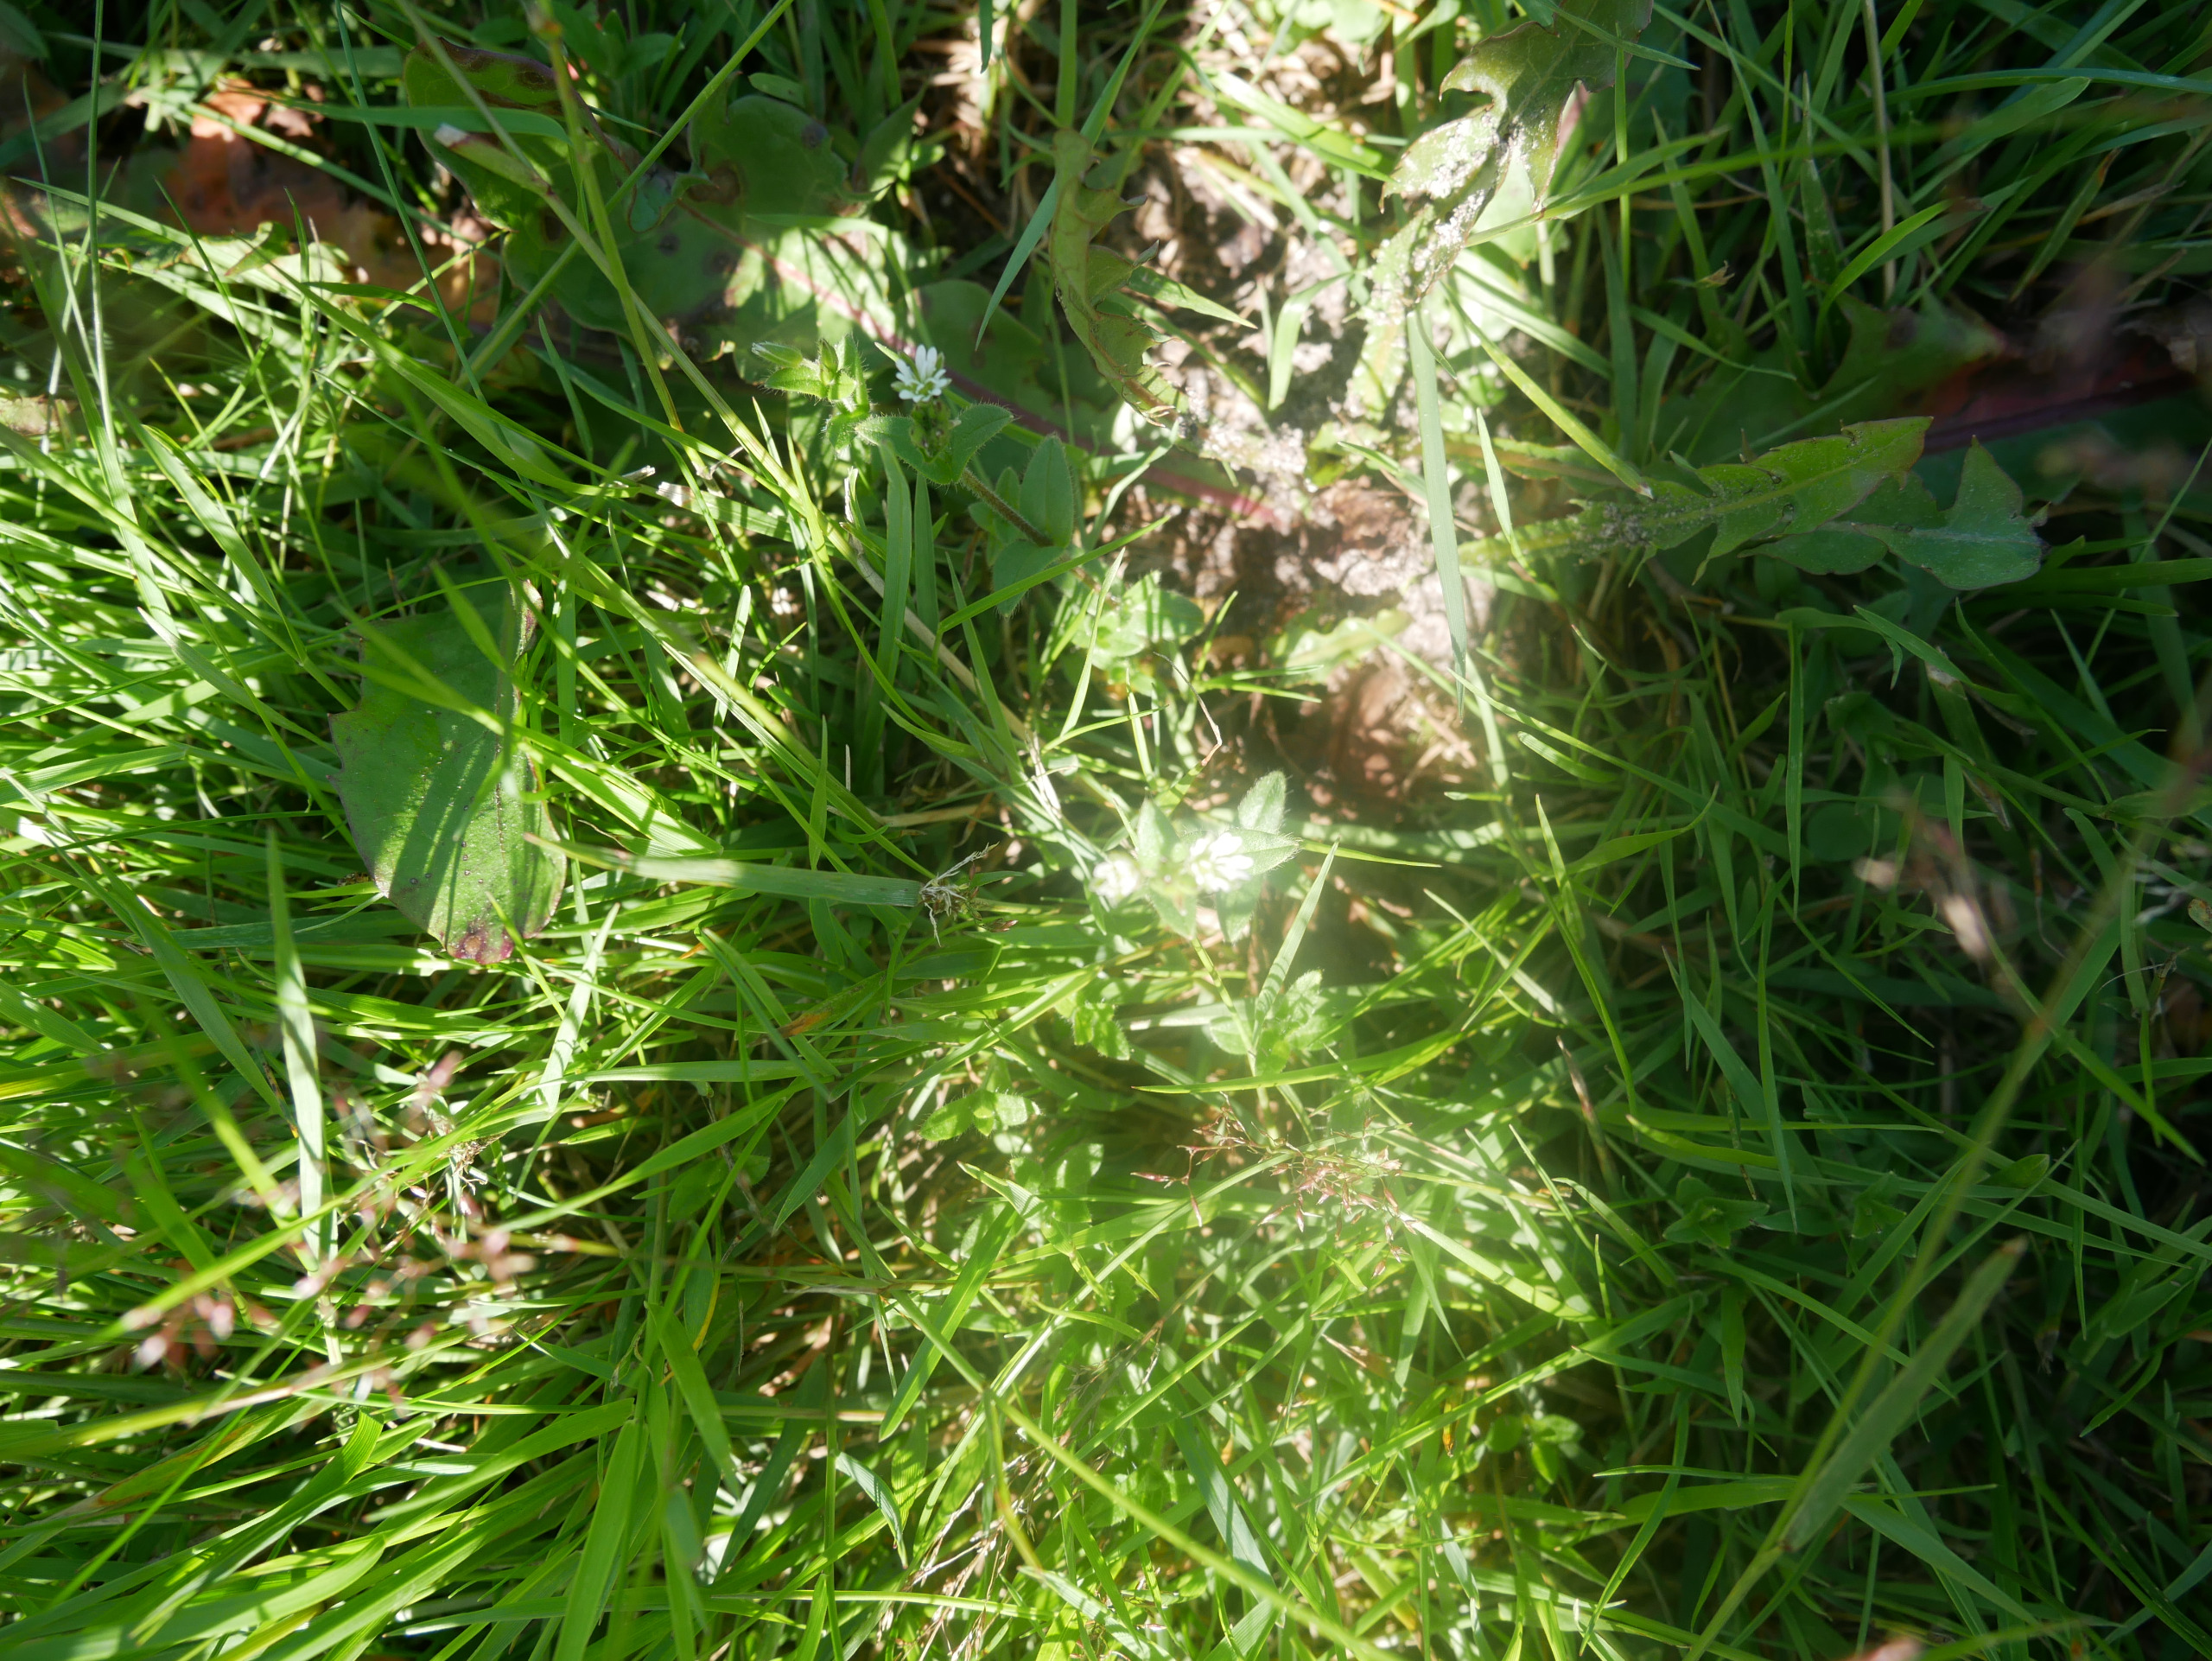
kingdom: Plantae
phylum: Tracheophyta
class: Magnoliopsida
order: Caryophyllales
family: Caryophyllaceae
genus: Stellaria
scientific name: Stellaria media
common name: Almindelig fuglegræs
